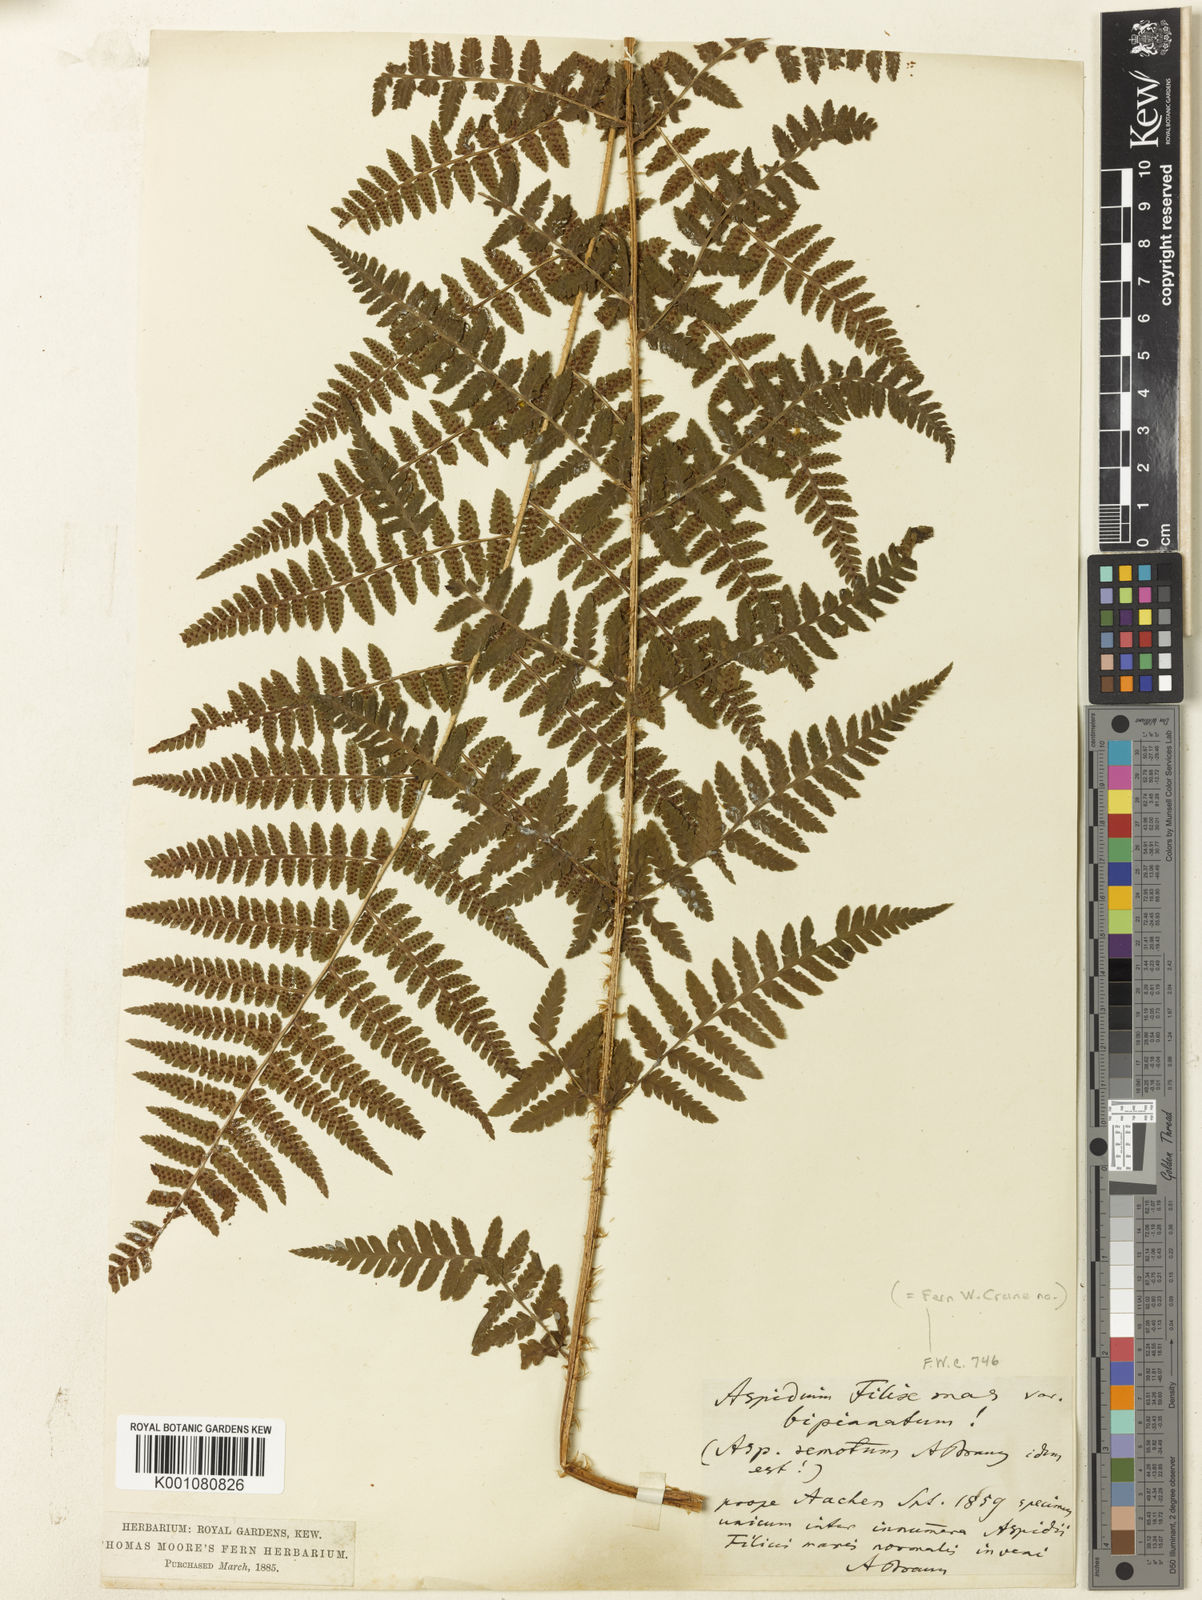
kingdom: Plantae
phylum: Tracheophyta
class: Polypodiopsida
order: Polypodiales
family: Dryopteridaceae
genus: Dryopteris
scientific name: Dryopteris affinis
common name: Scaly male fern
